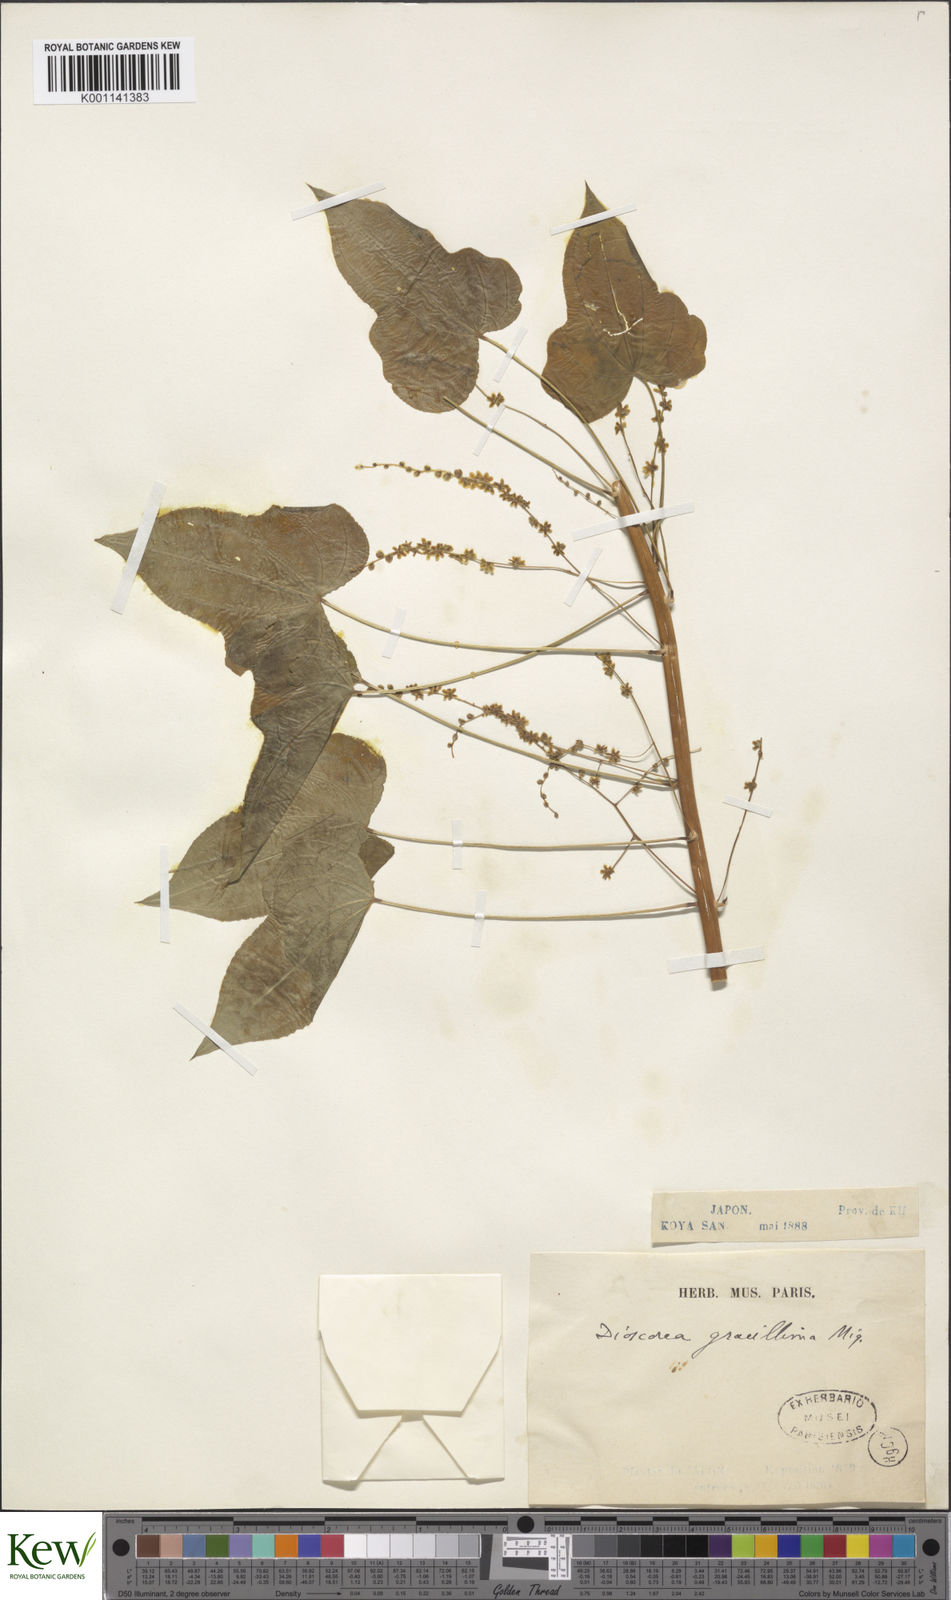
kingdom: Plantae
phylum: Tracheophyta
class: Liliopsida
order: Dioscoreales
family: Dioscoreaceae
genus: Dioscorea
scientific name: Dioscorea gracillima
